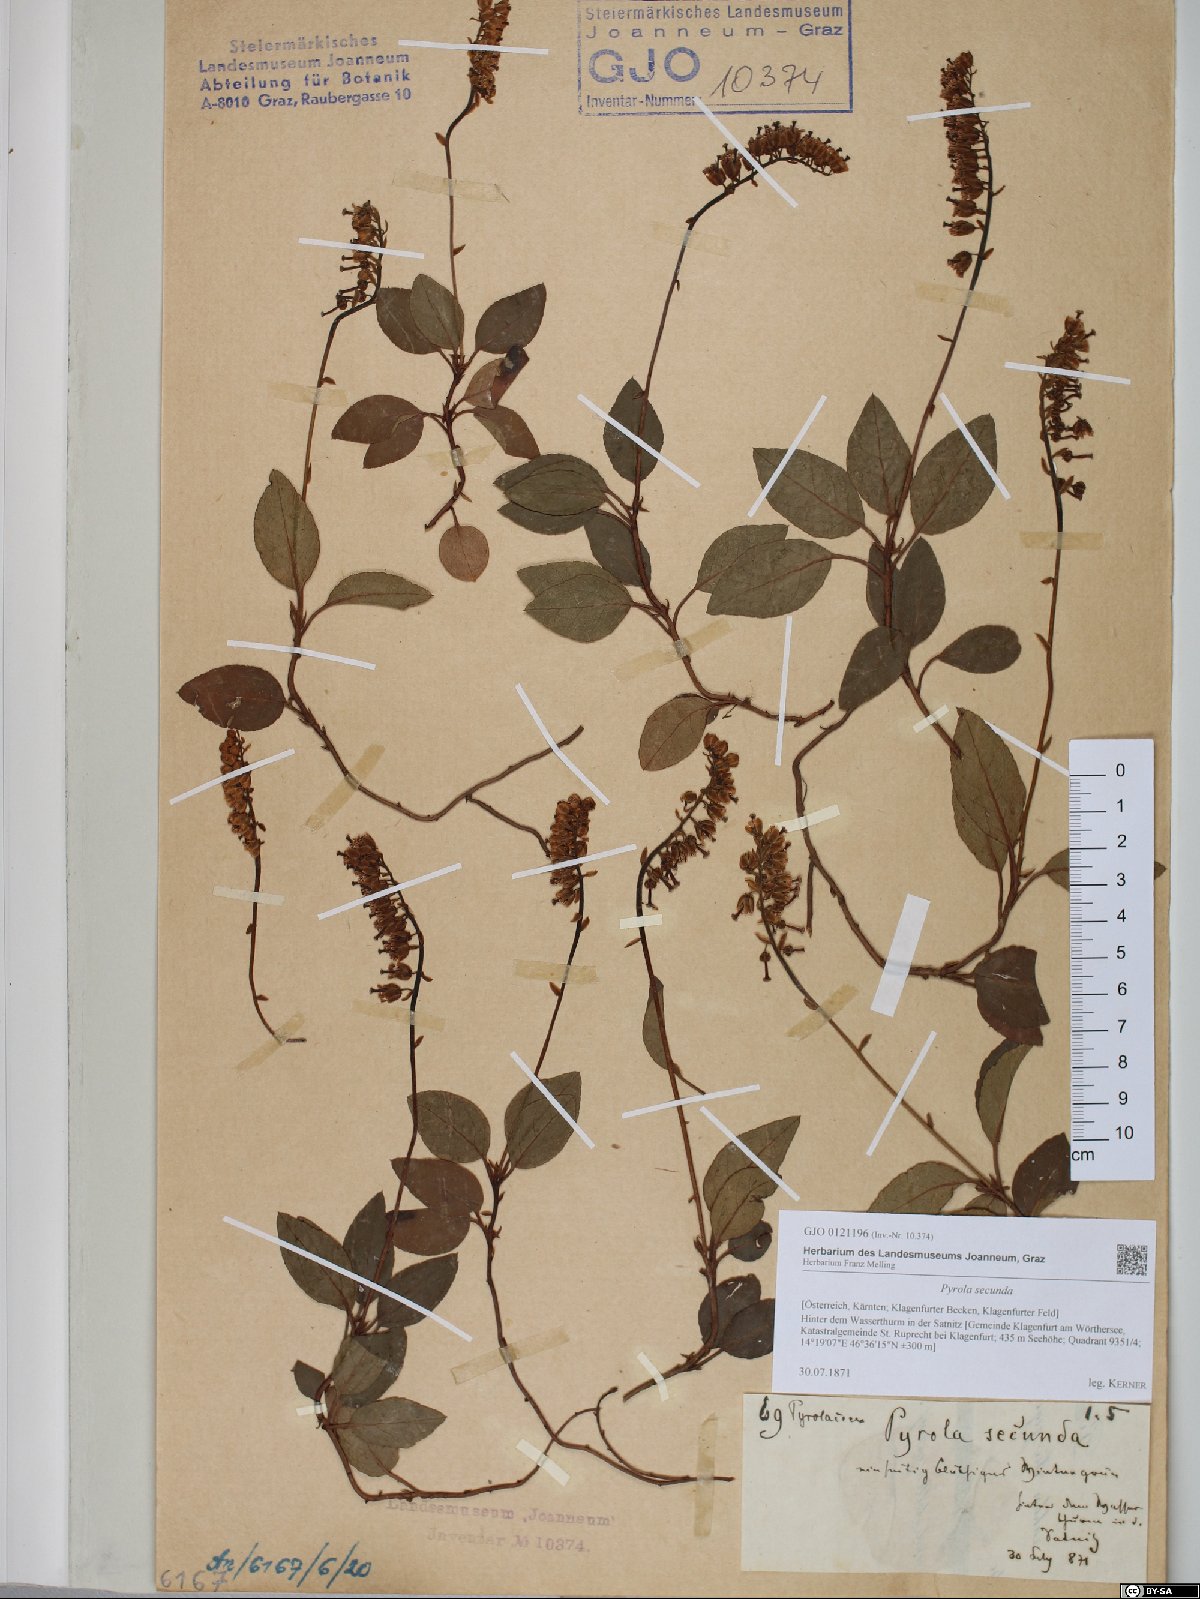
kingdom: Plantae
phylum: Tracheophyta
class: Magnoliopsida
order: Ericales
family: Ericaceae
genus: Orthilia
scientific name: Orthilia secunda
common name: One-sided orthilia
